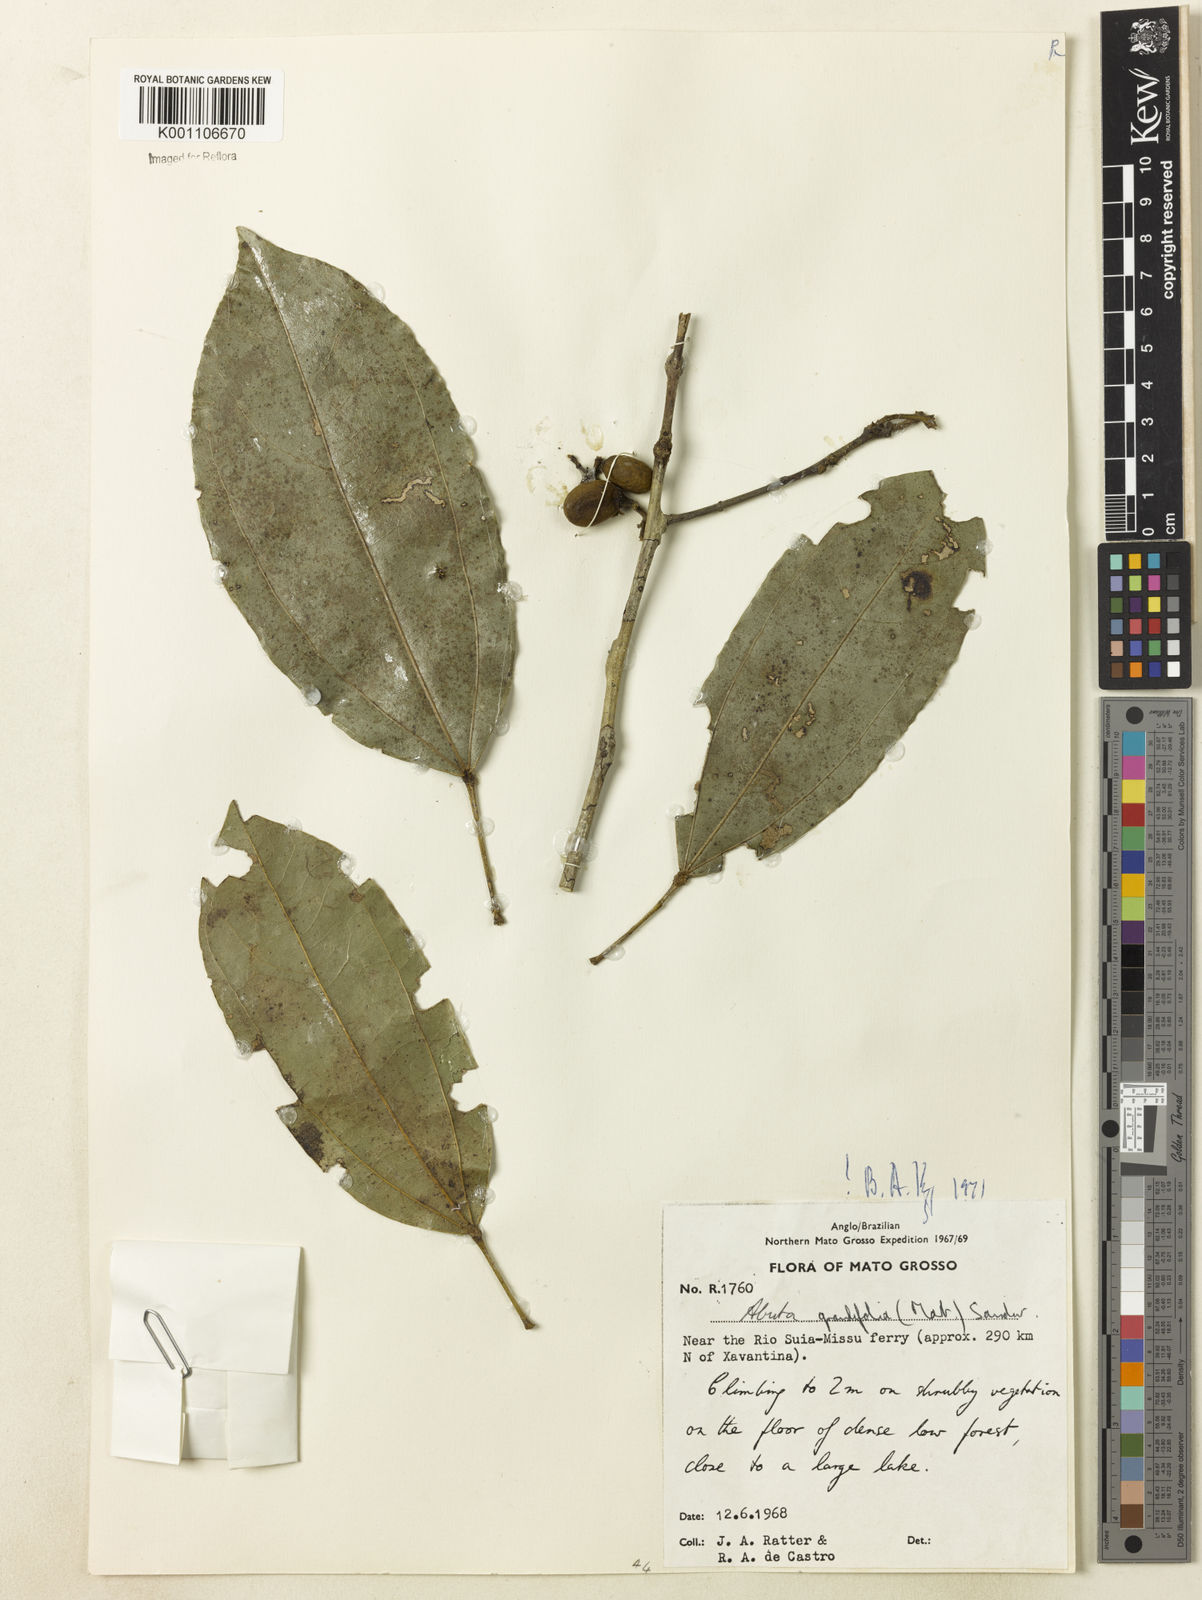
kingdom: Plantae
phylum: Tracheophyta
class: Magnoliopsida
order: Ranunculales
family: Menispermaceae
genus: Abuta
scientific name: Abuta grandifolia
